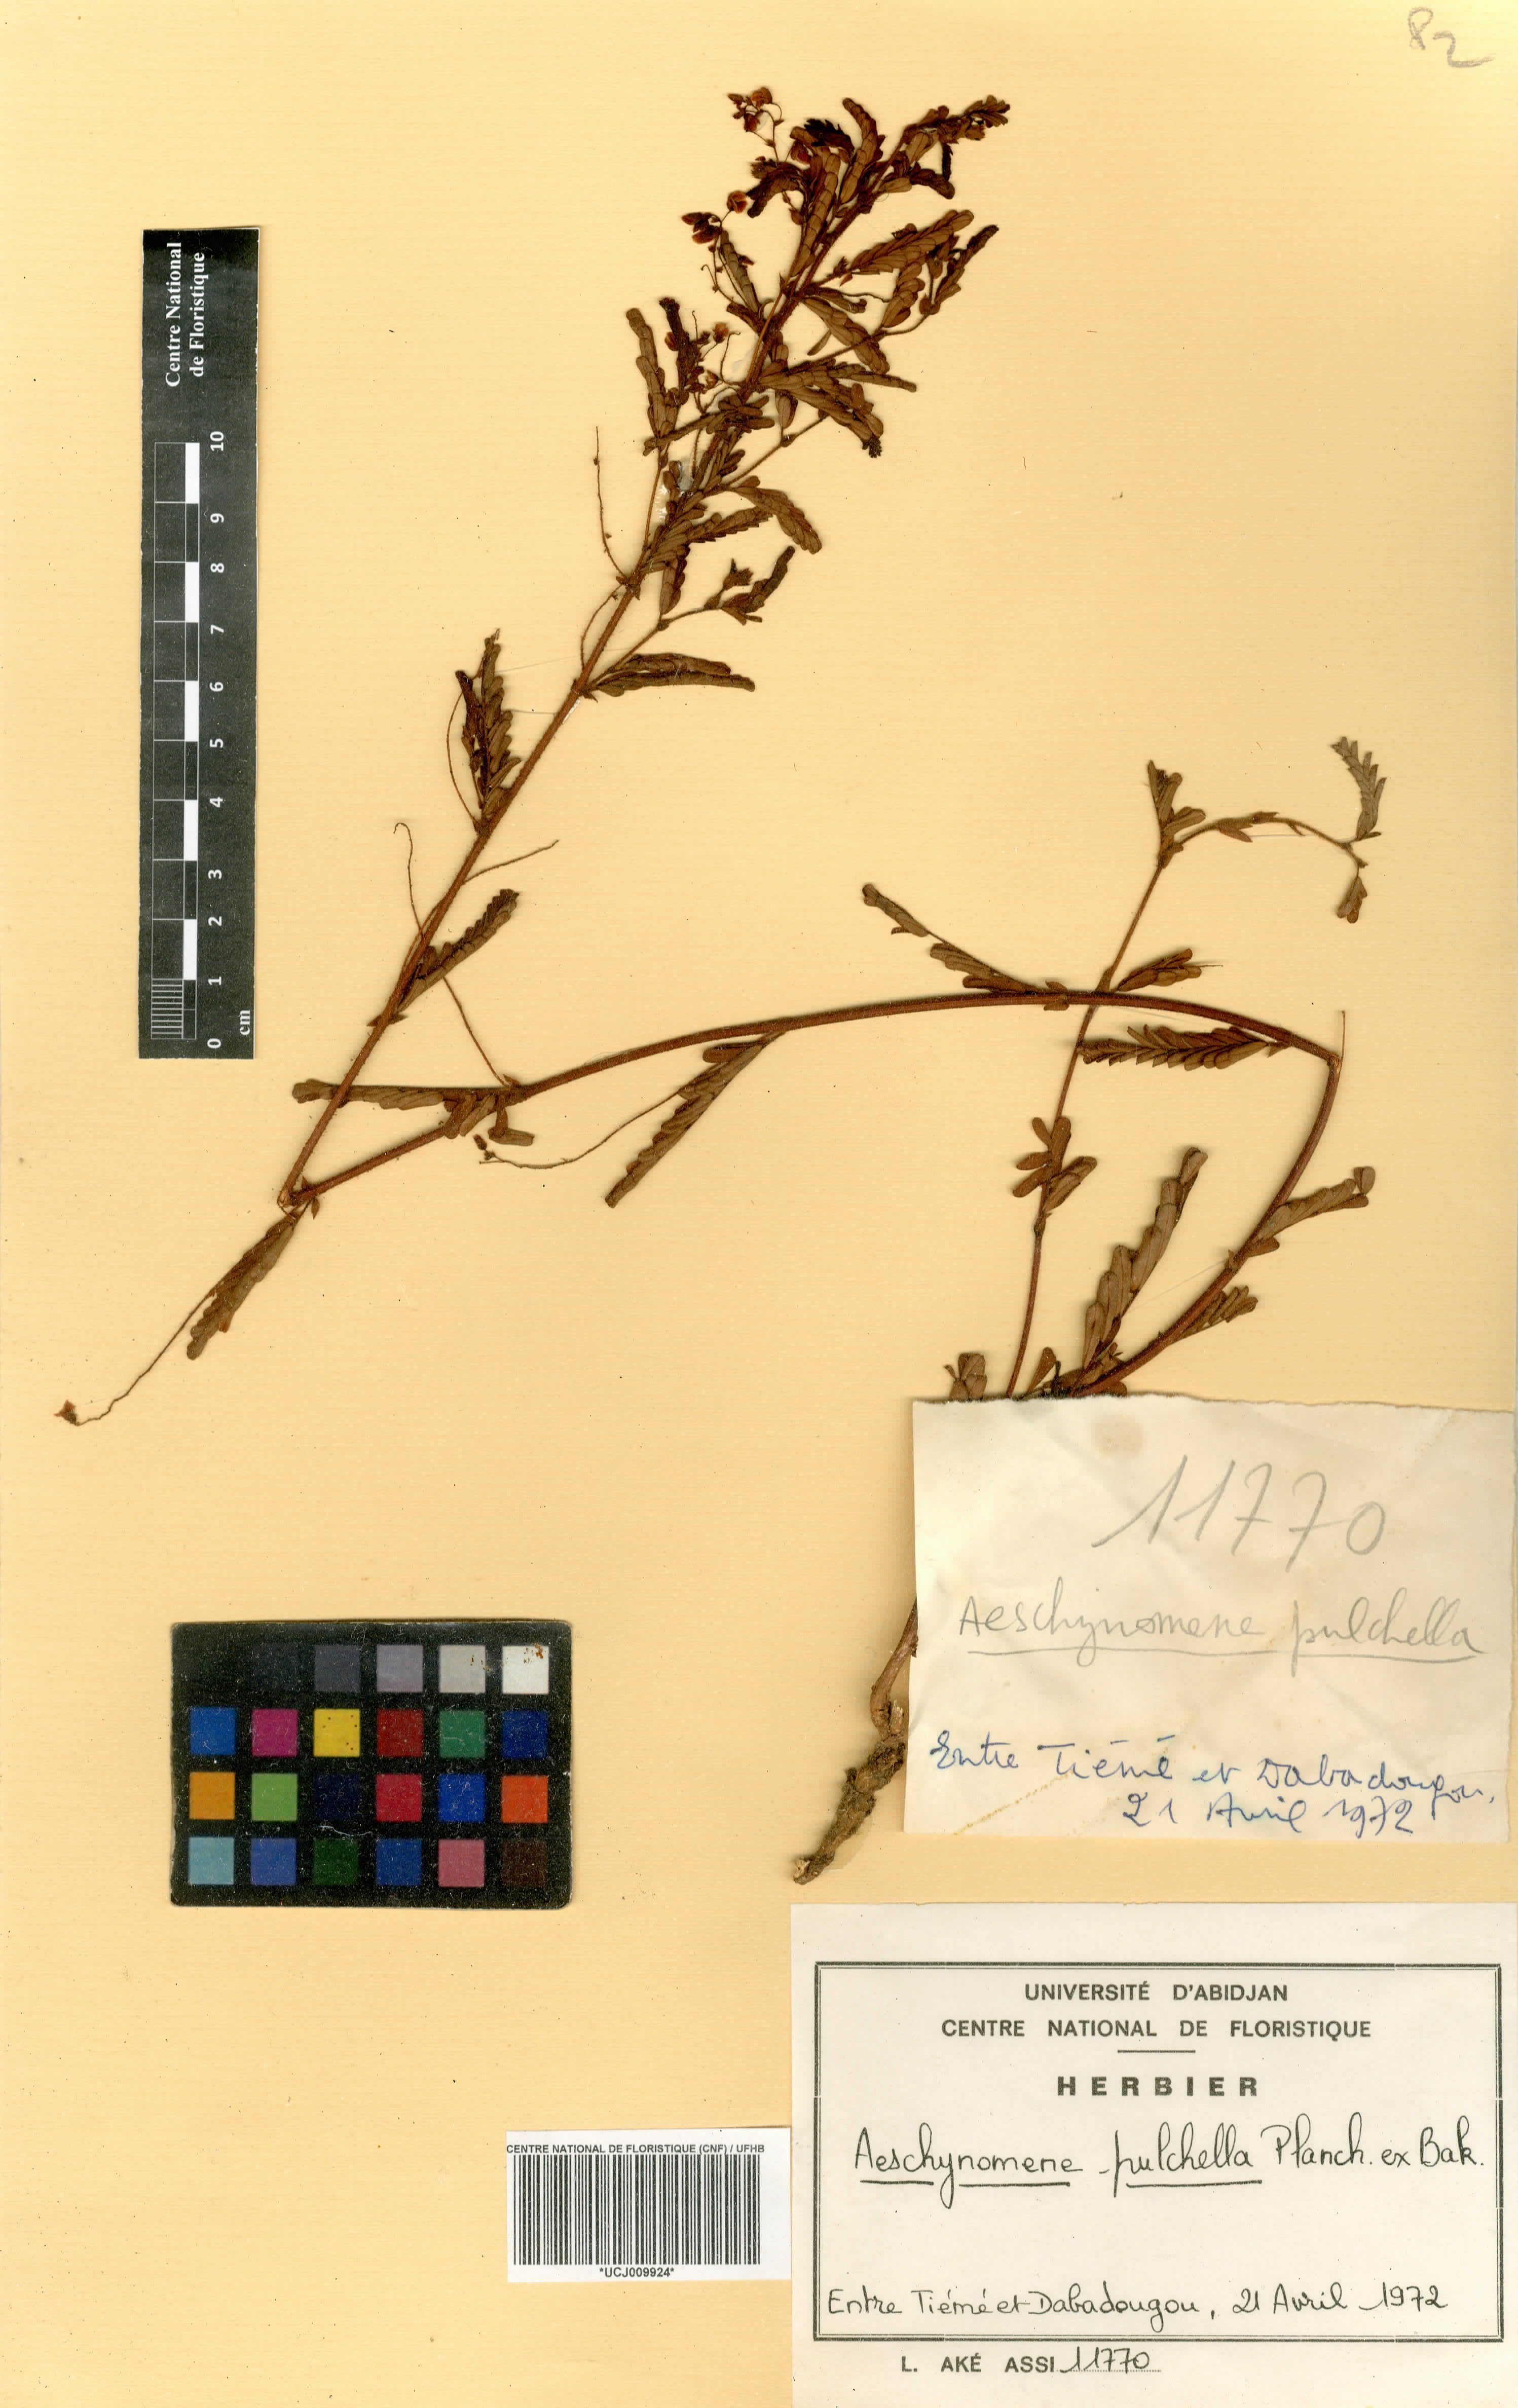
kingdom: Plantae
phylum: Tracheophyta
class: Magnoliopsida
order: Fabales
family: Fabaceae
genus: Aeschynomene
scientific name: Aeschynomene pulchella
